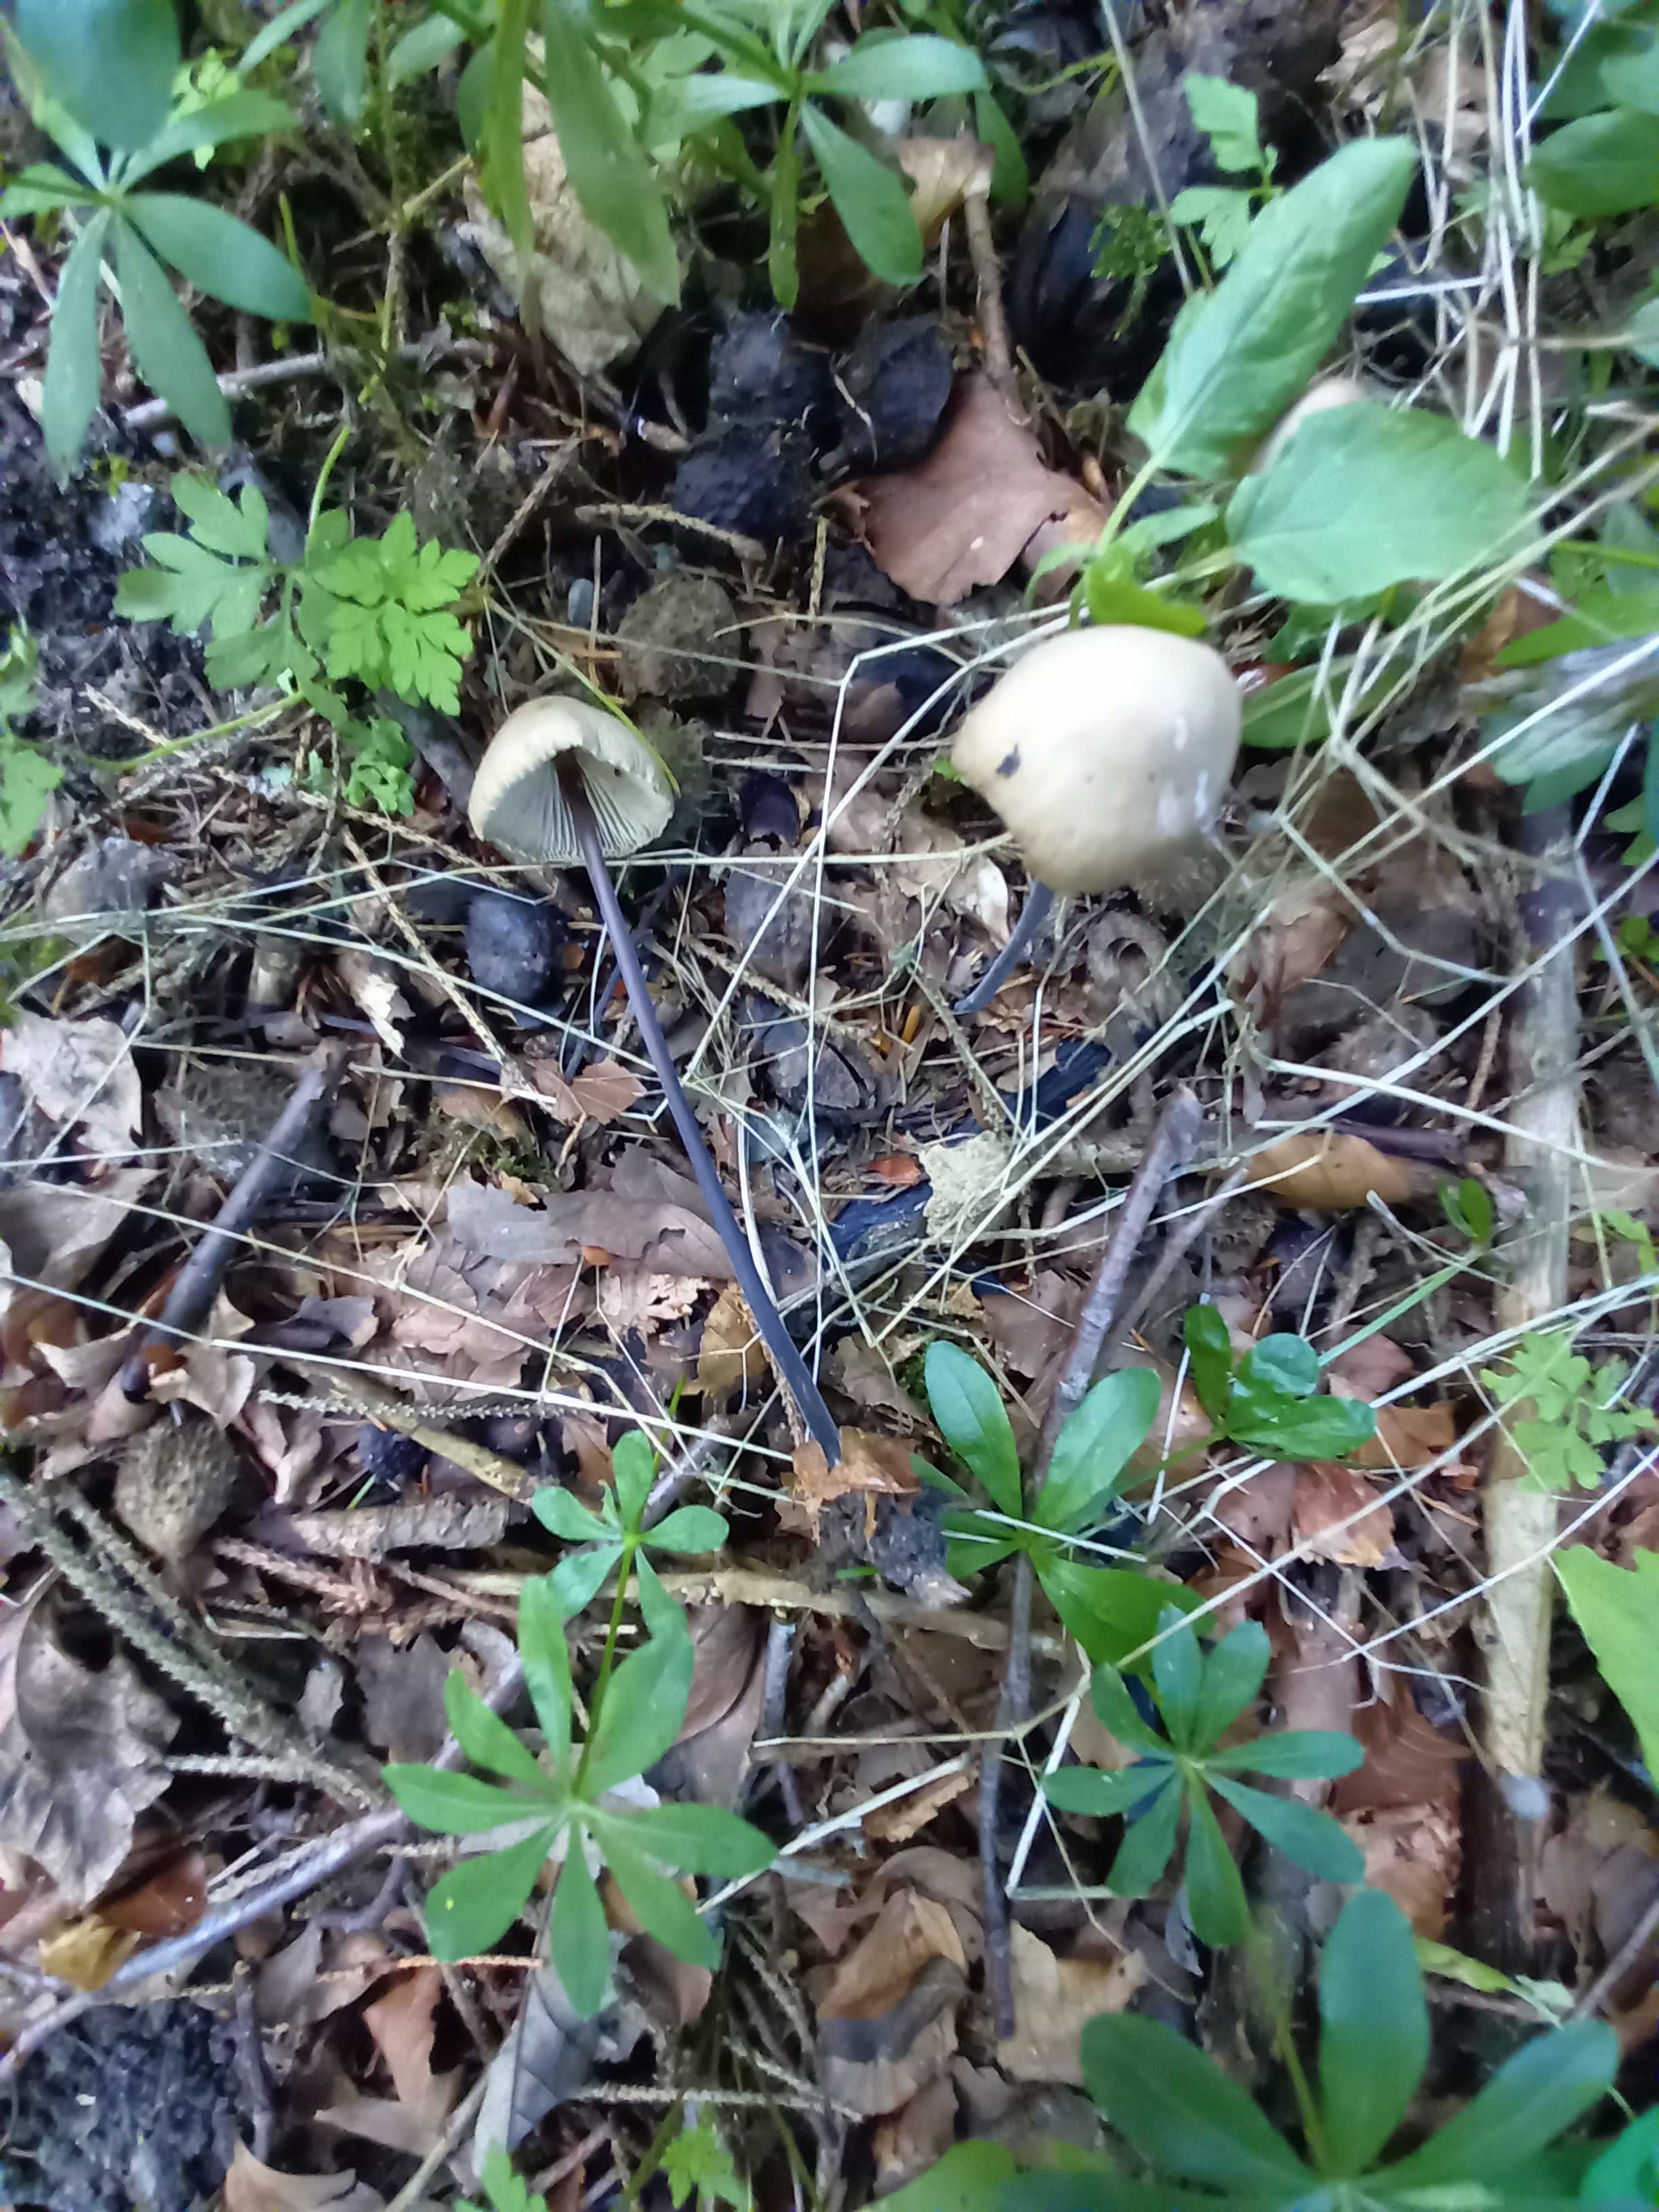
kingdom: Fungi
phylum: Basidiomycota
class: Agaricomycetes
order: Agaricales
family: Omphalotaceae
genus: Mycetinis
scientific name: Mycetinis alliaceus
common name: stor løghat
